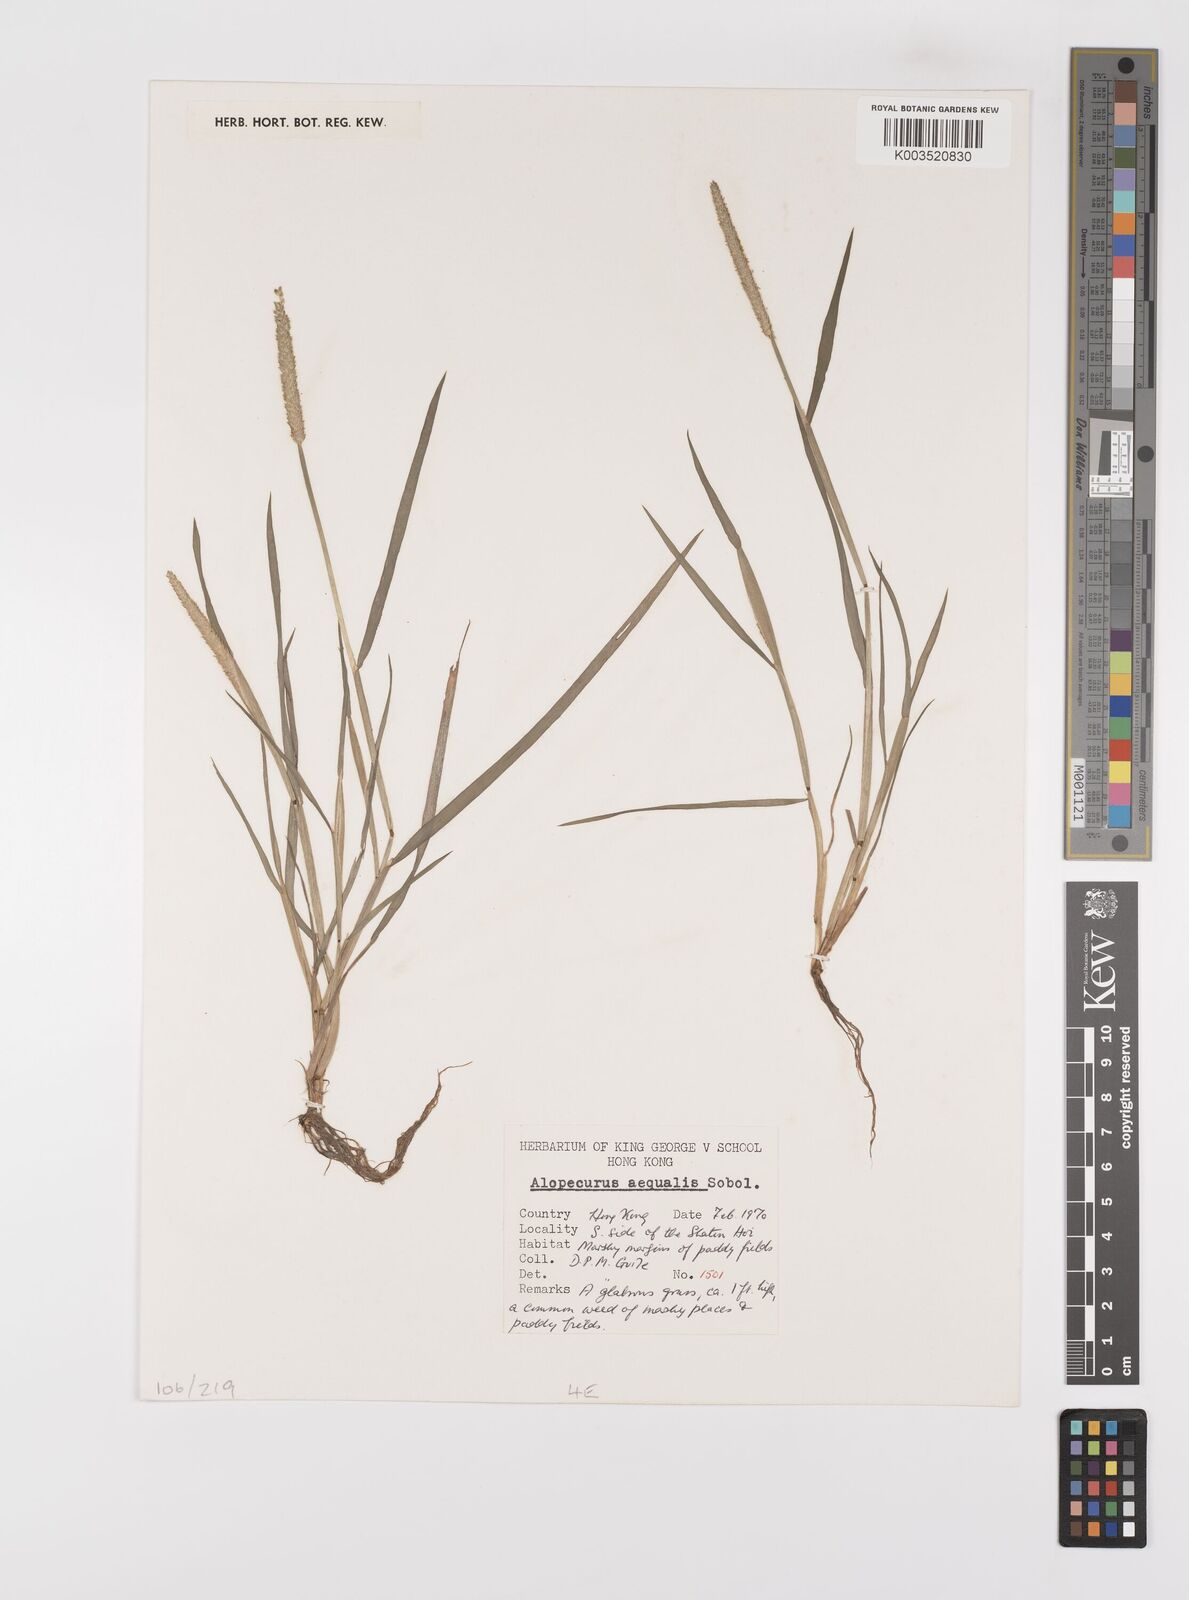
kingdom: Plantae
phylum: Tracheophyta
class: Liliopsida
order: Poales
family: Poaceae
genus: Alopecurus
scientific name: Alopecurus aequalis
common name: Orange foxtail
